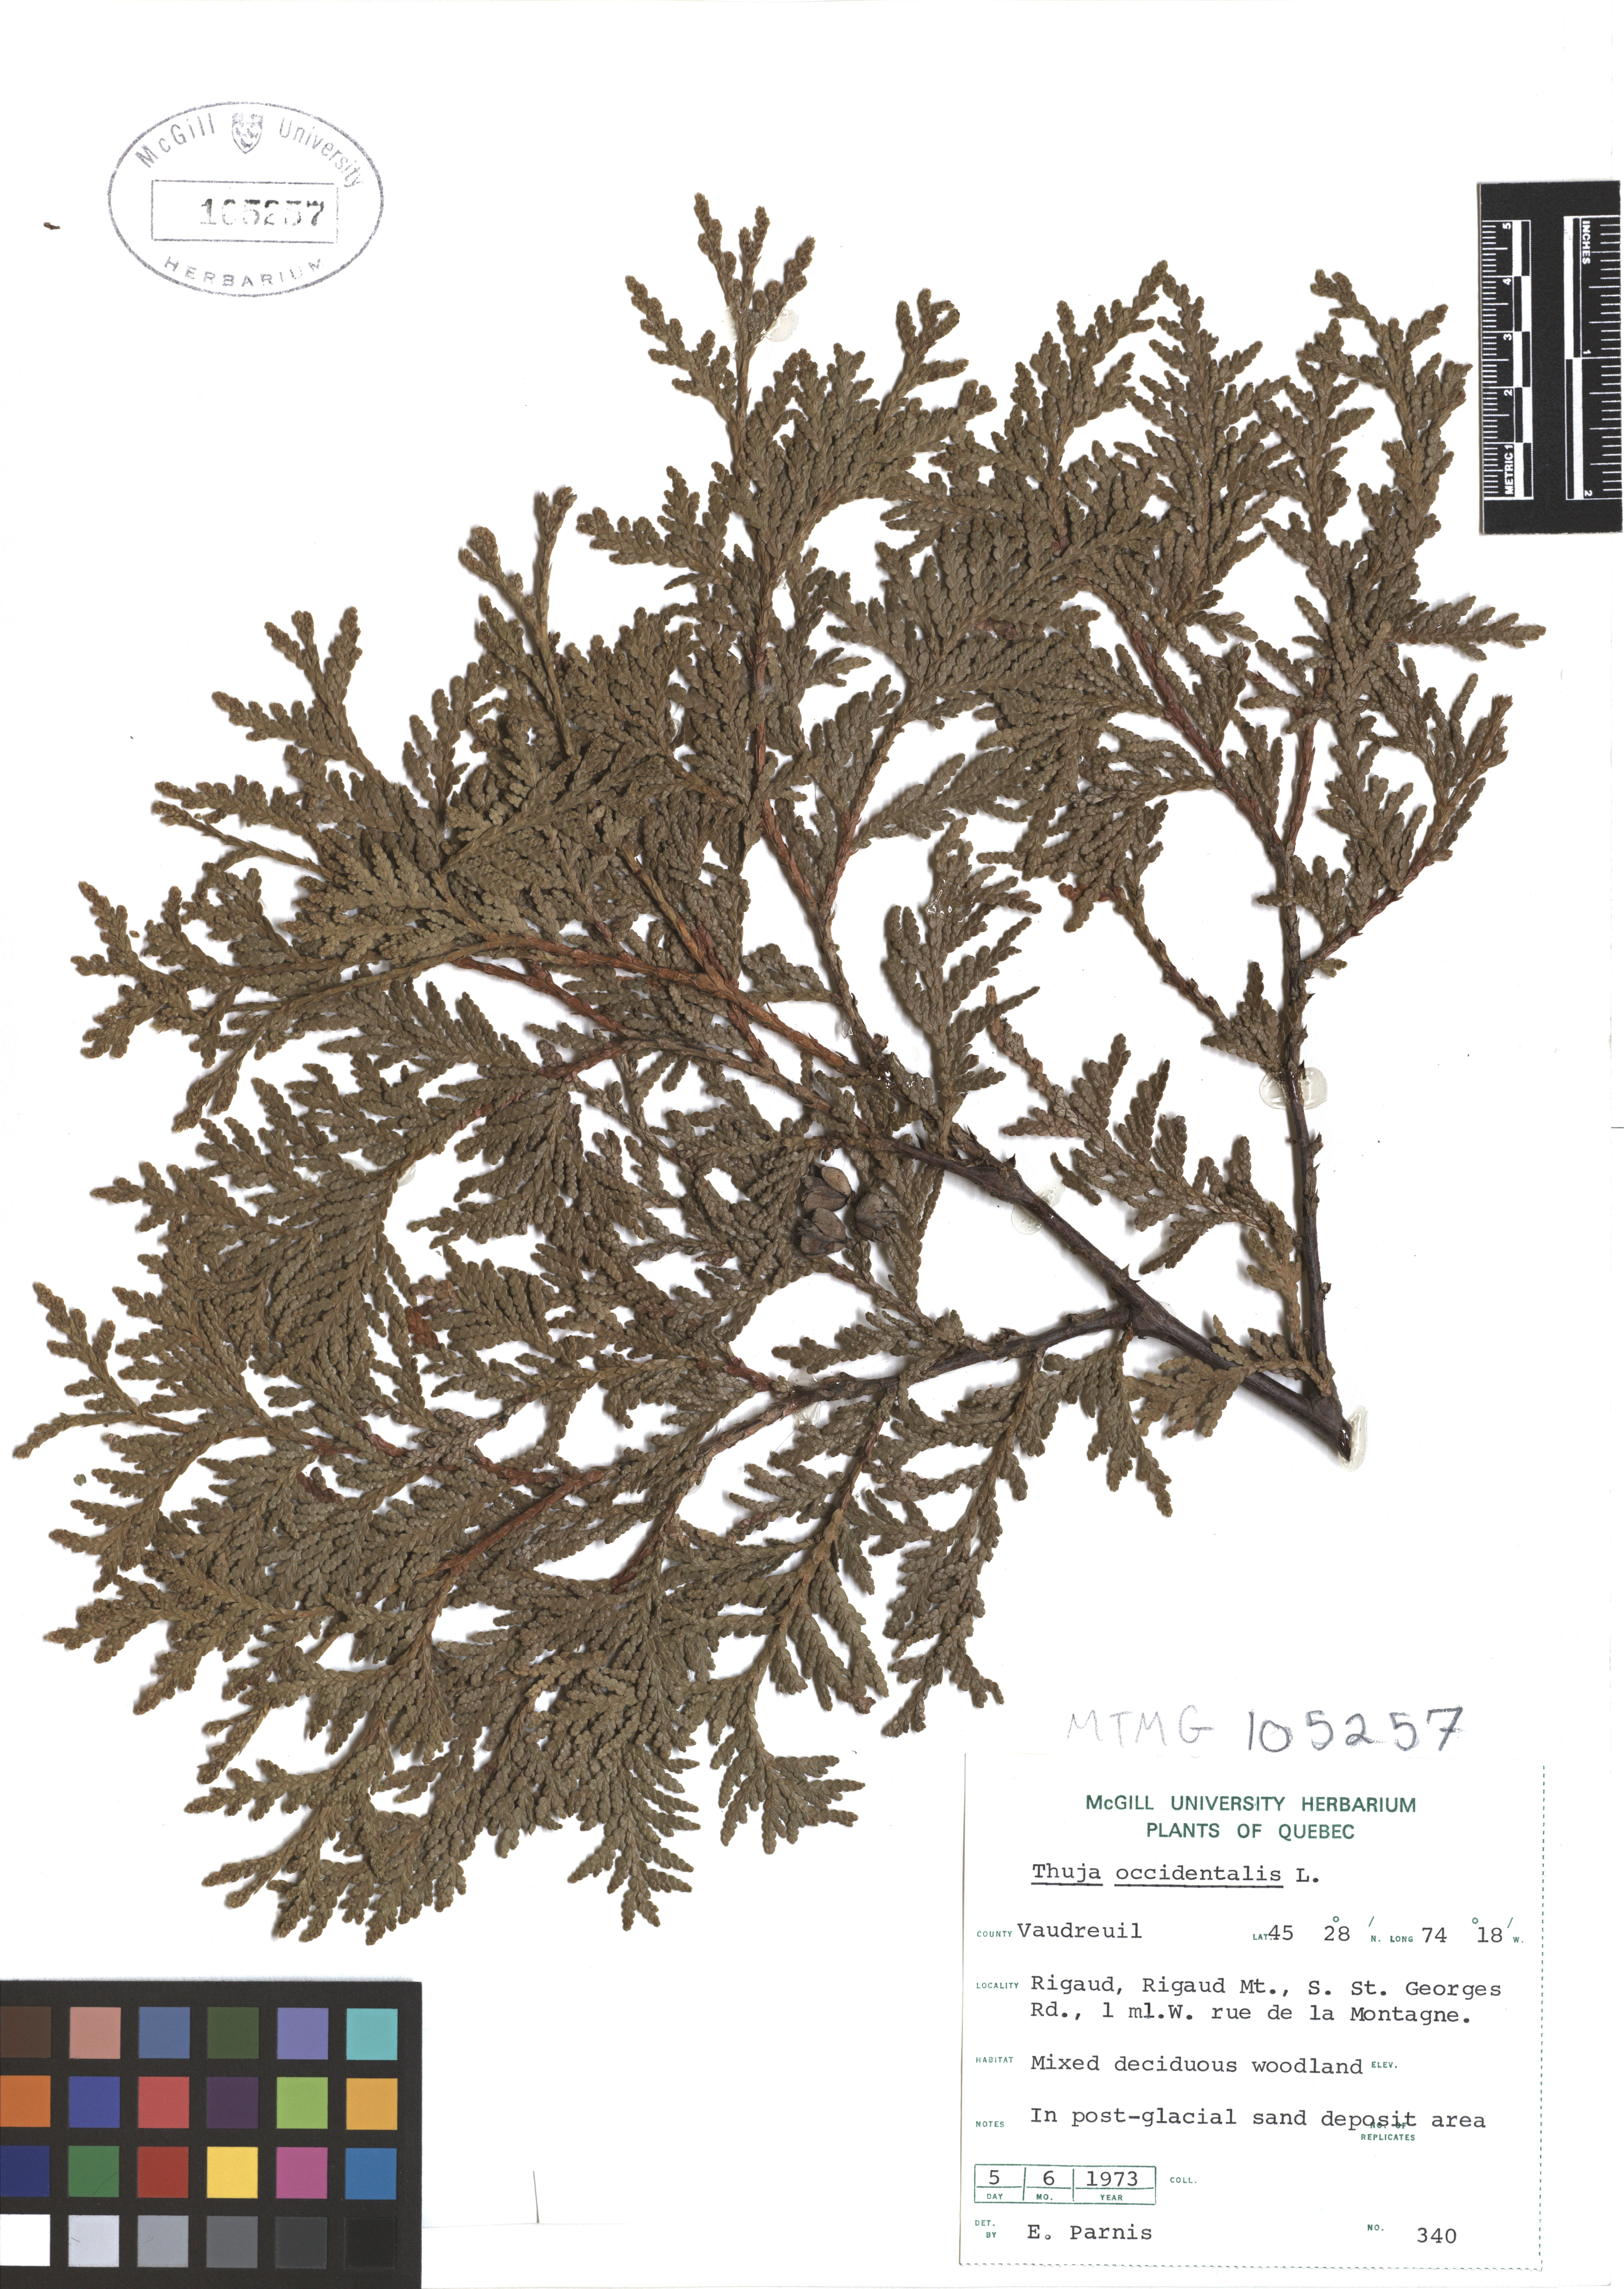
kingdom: Plantae
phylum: Tracheophyta
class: Pinopsida
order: Pinales
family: Cupressaceae
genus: Thuja
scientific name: Thuja occidentalis
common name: Northern white-cedar
